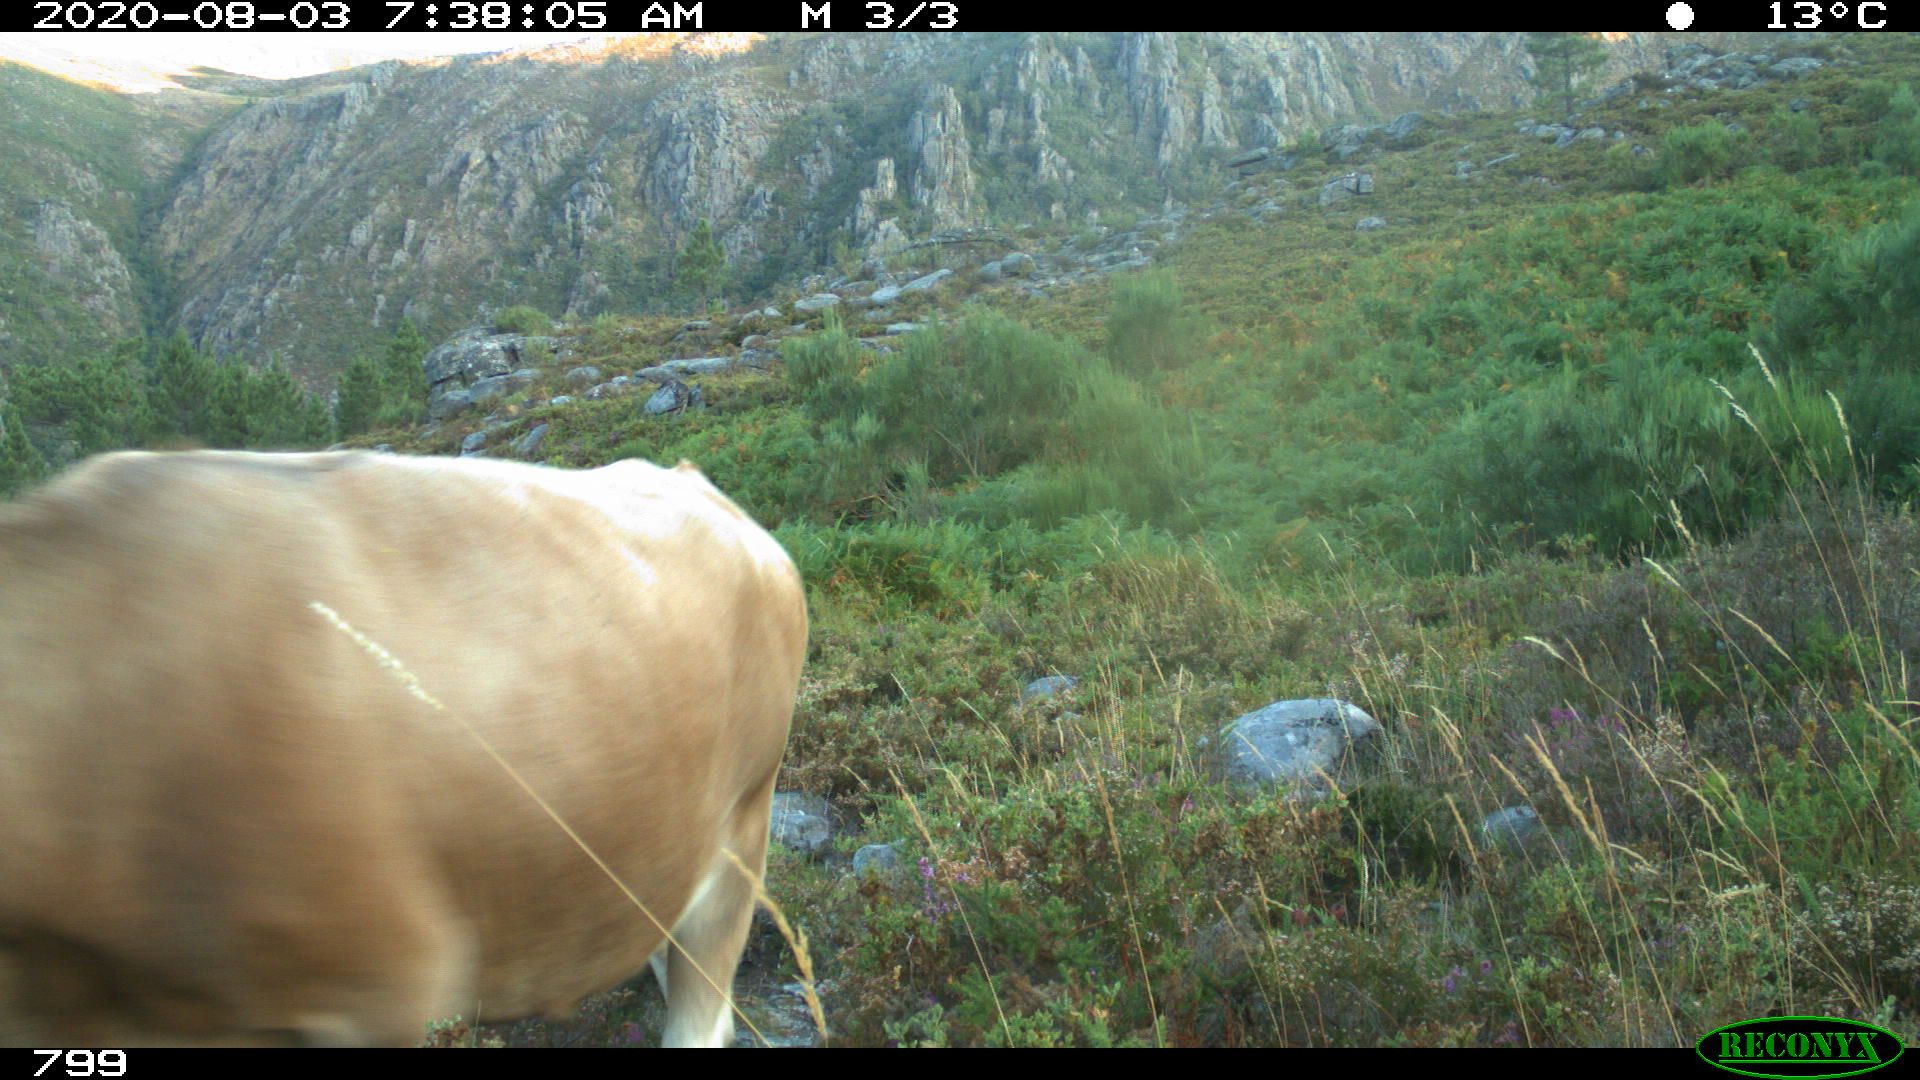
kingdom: Animalia
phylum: Chordata
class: Mammalia
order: Artiodactyla
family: Bovidae
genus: Bos
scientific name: Bos taurus
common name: Domesticated cattle
